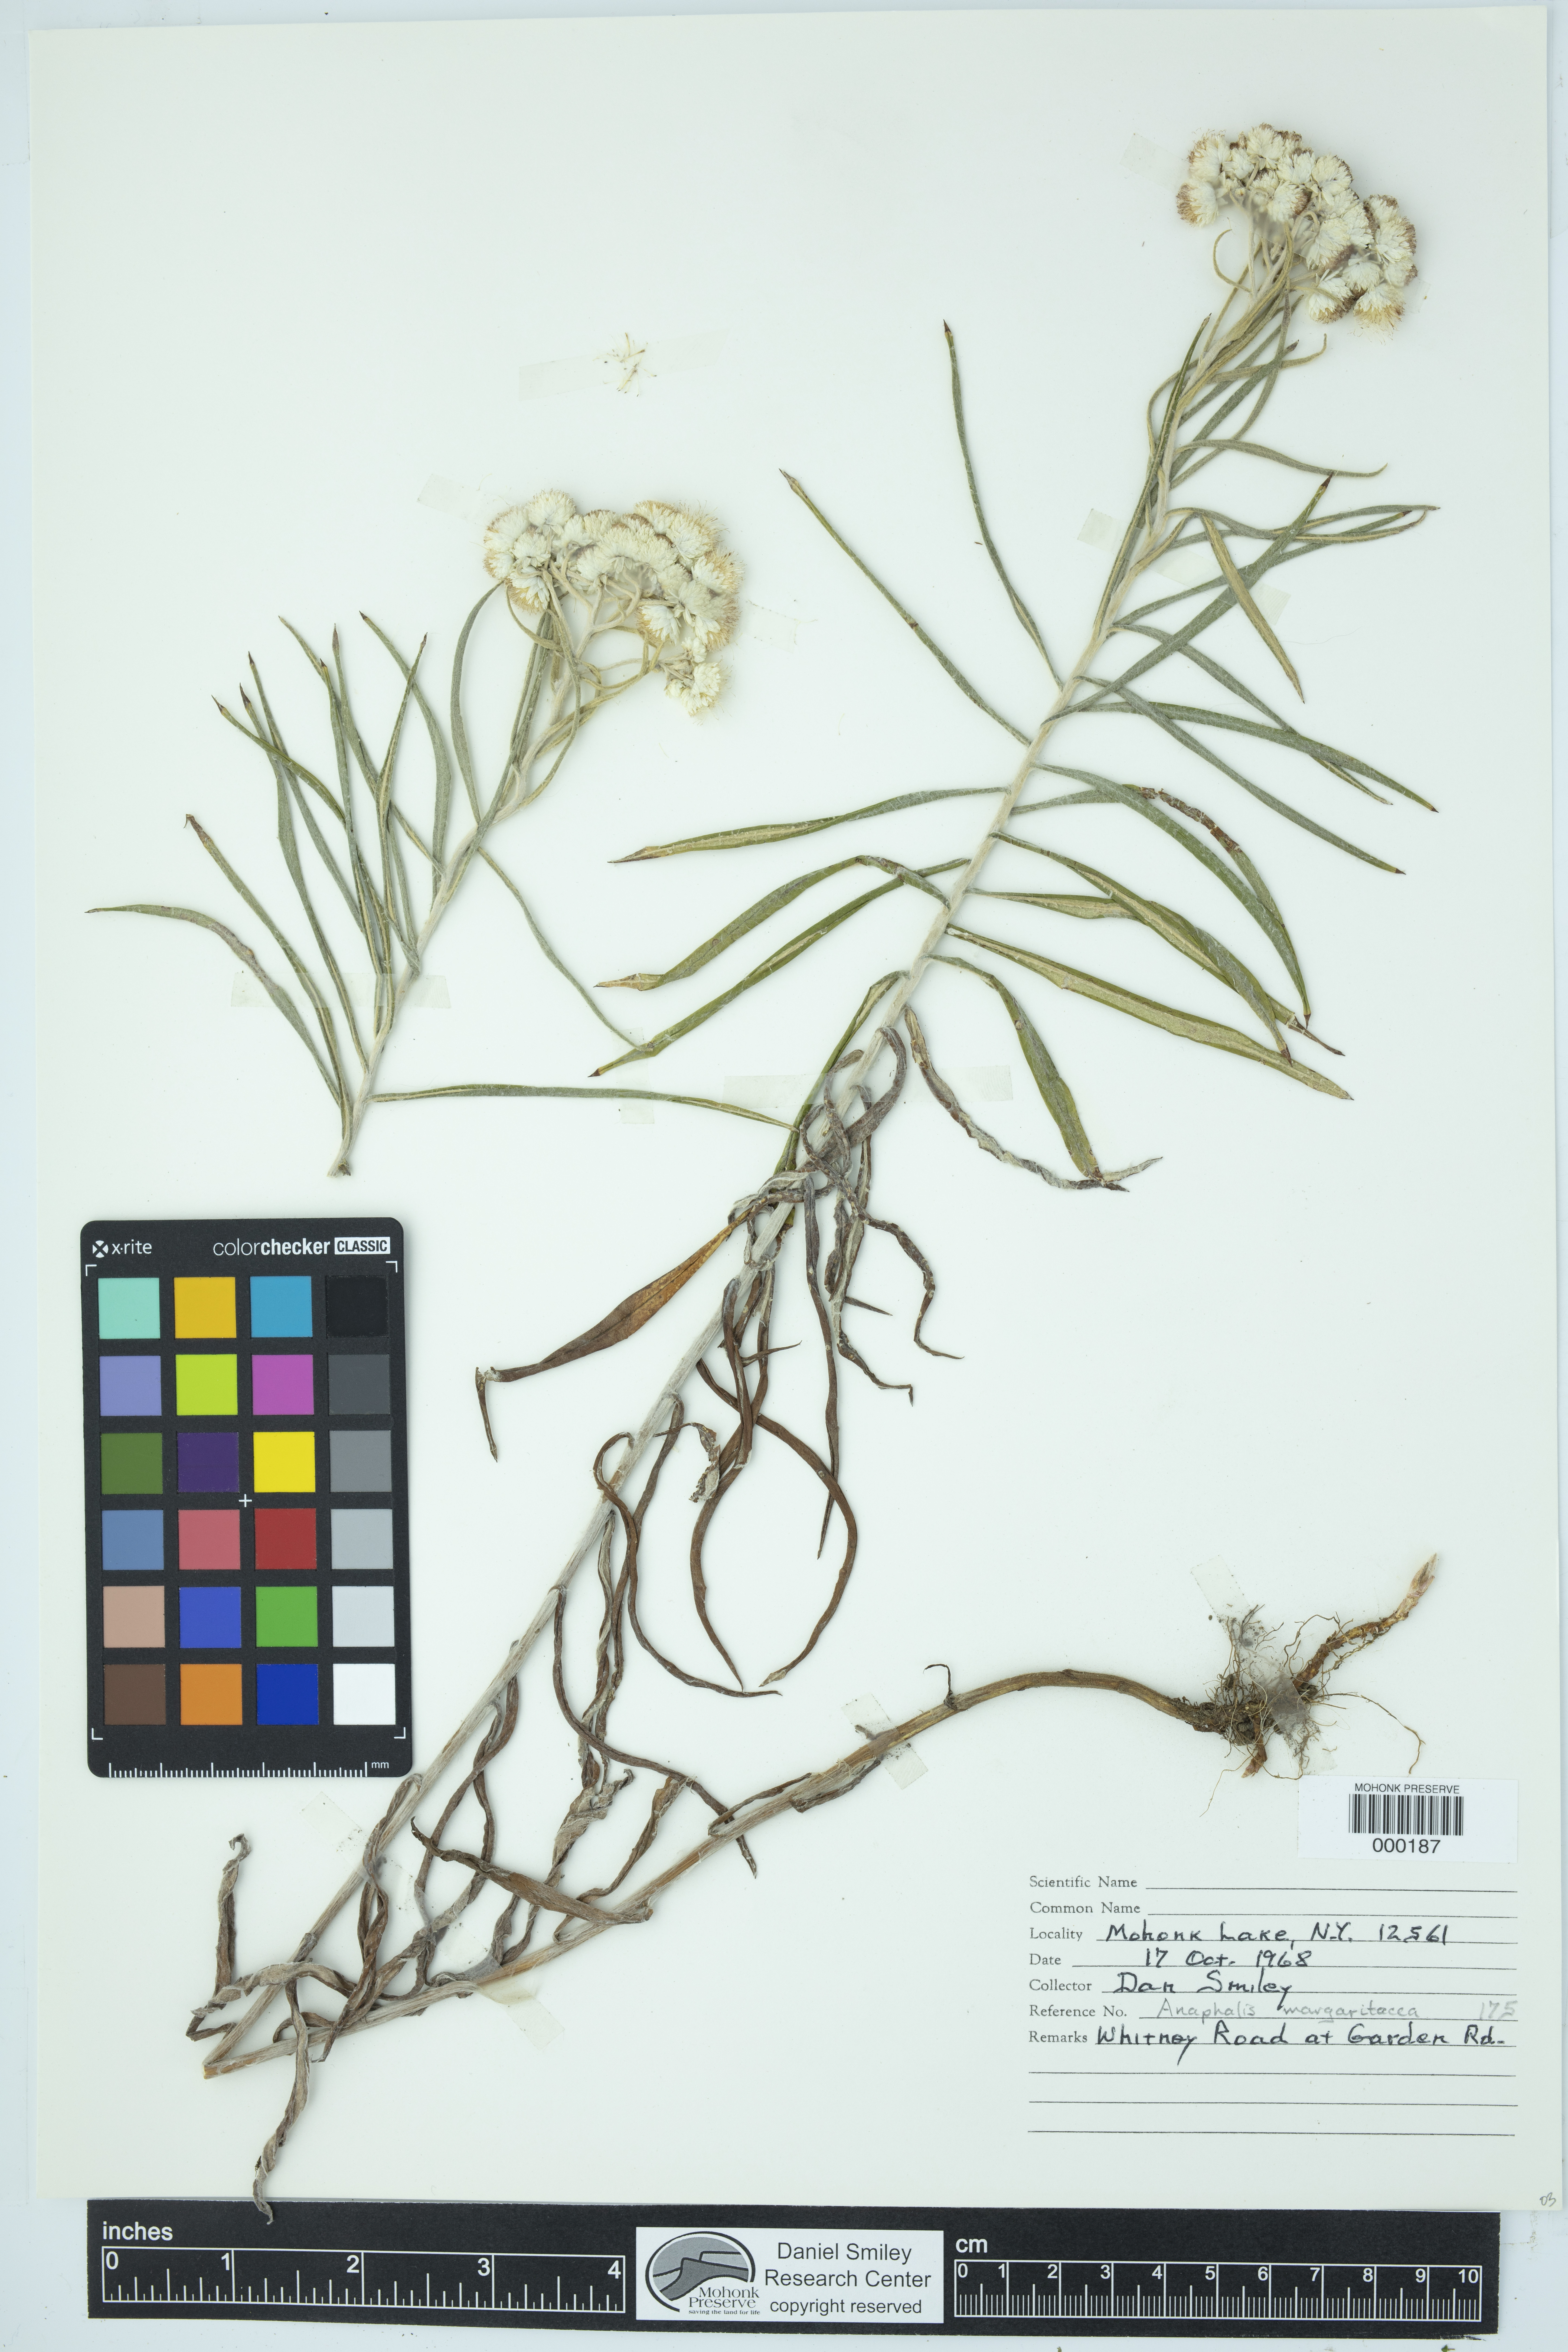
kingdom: Plantae
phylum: Tracheophyta
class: Magnoliopsida
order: Asterales
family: Asteraceae
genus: Anaphalis
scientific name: Anaphalis margaritacea
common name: Pearly everlasting
